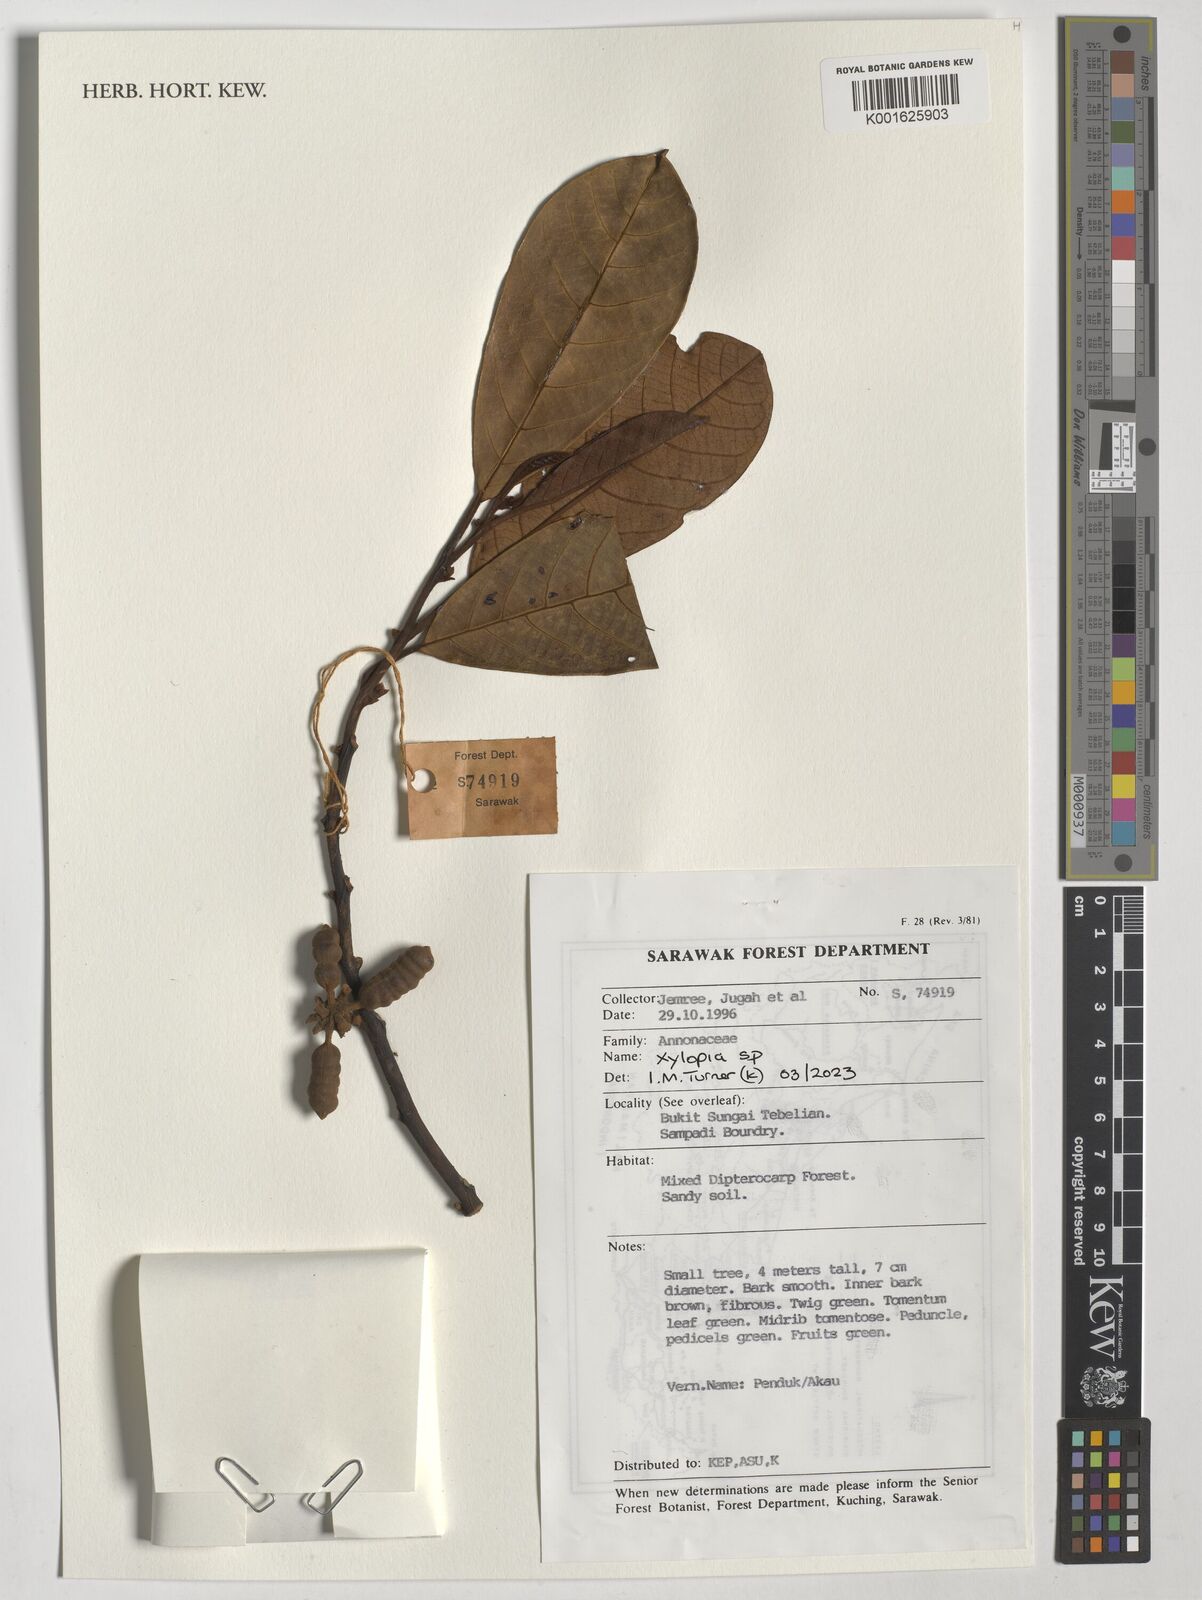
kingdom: Plantae
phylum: Tracheophyta
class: Magnoliopsida
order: Magnoliales
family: Annonaceae
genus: Xylopia
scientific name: Xylopia
